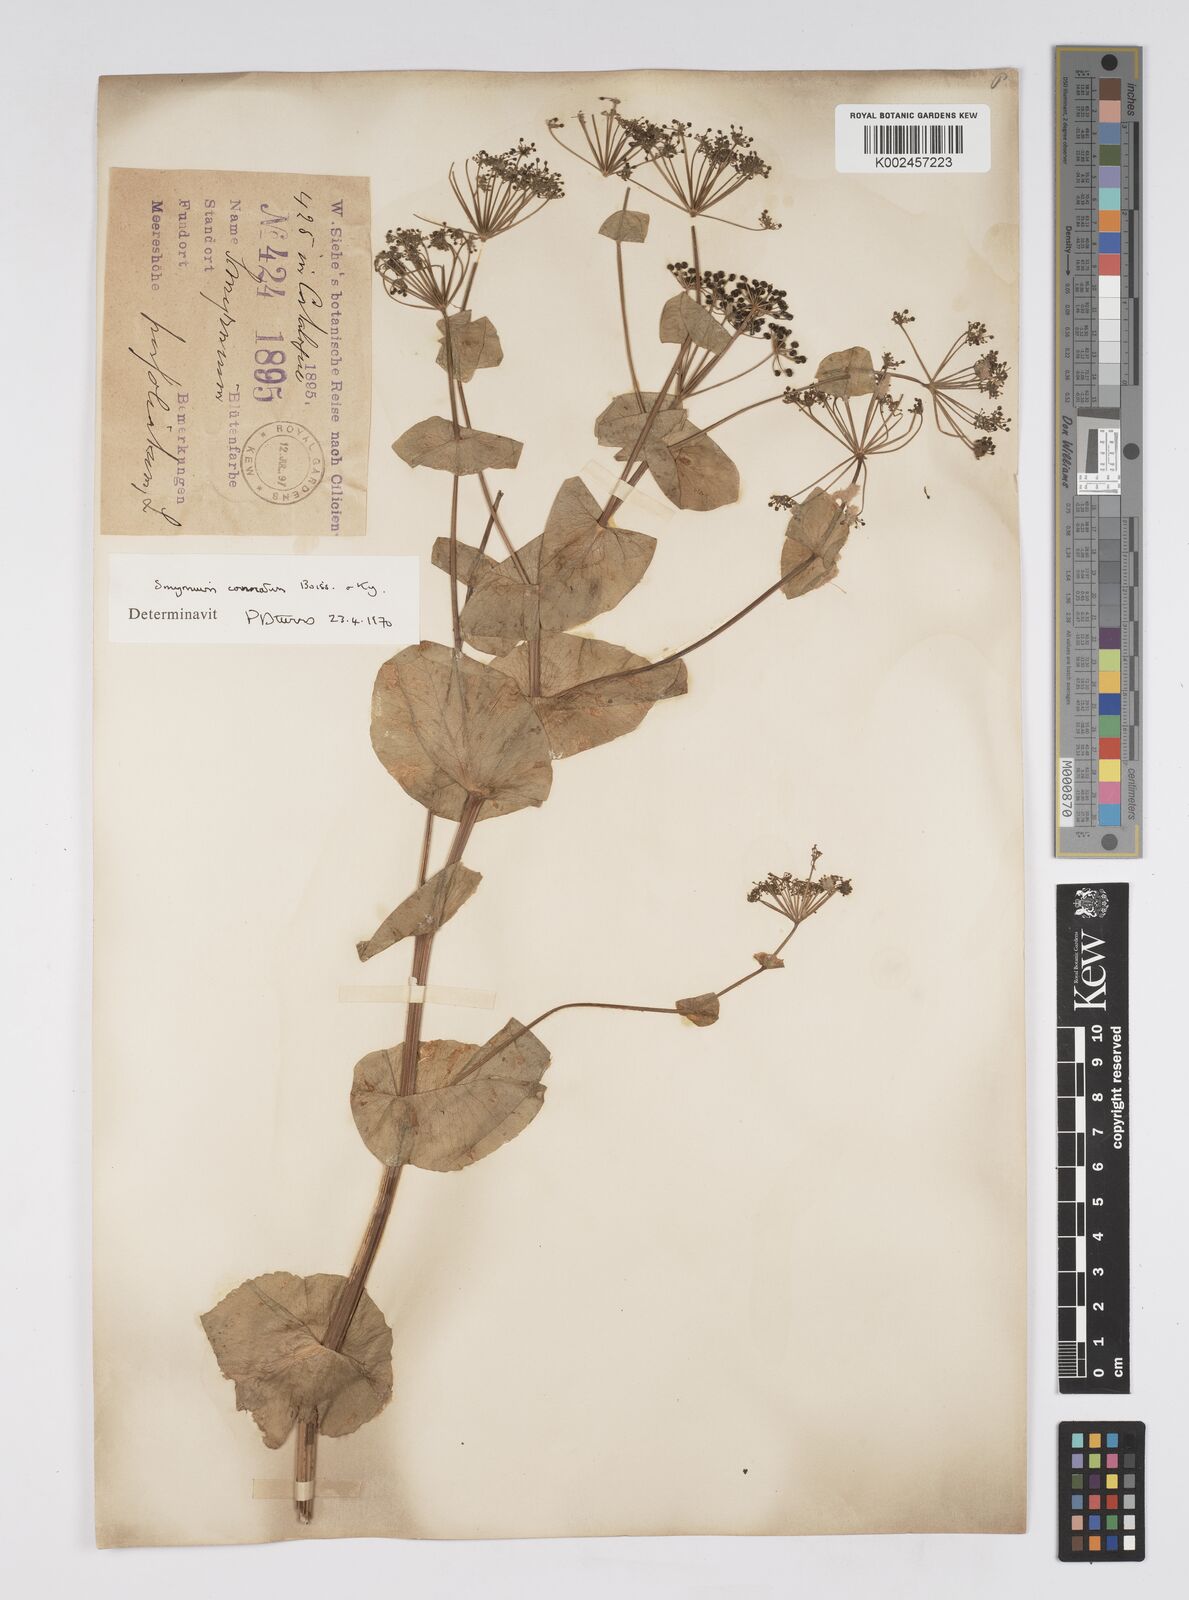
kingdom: Plantae
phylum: Tracheophyta
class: Magnoliopsida
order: Apiales
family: Apiaceae
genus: Smyrnium
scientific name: Smyrnium connatum
